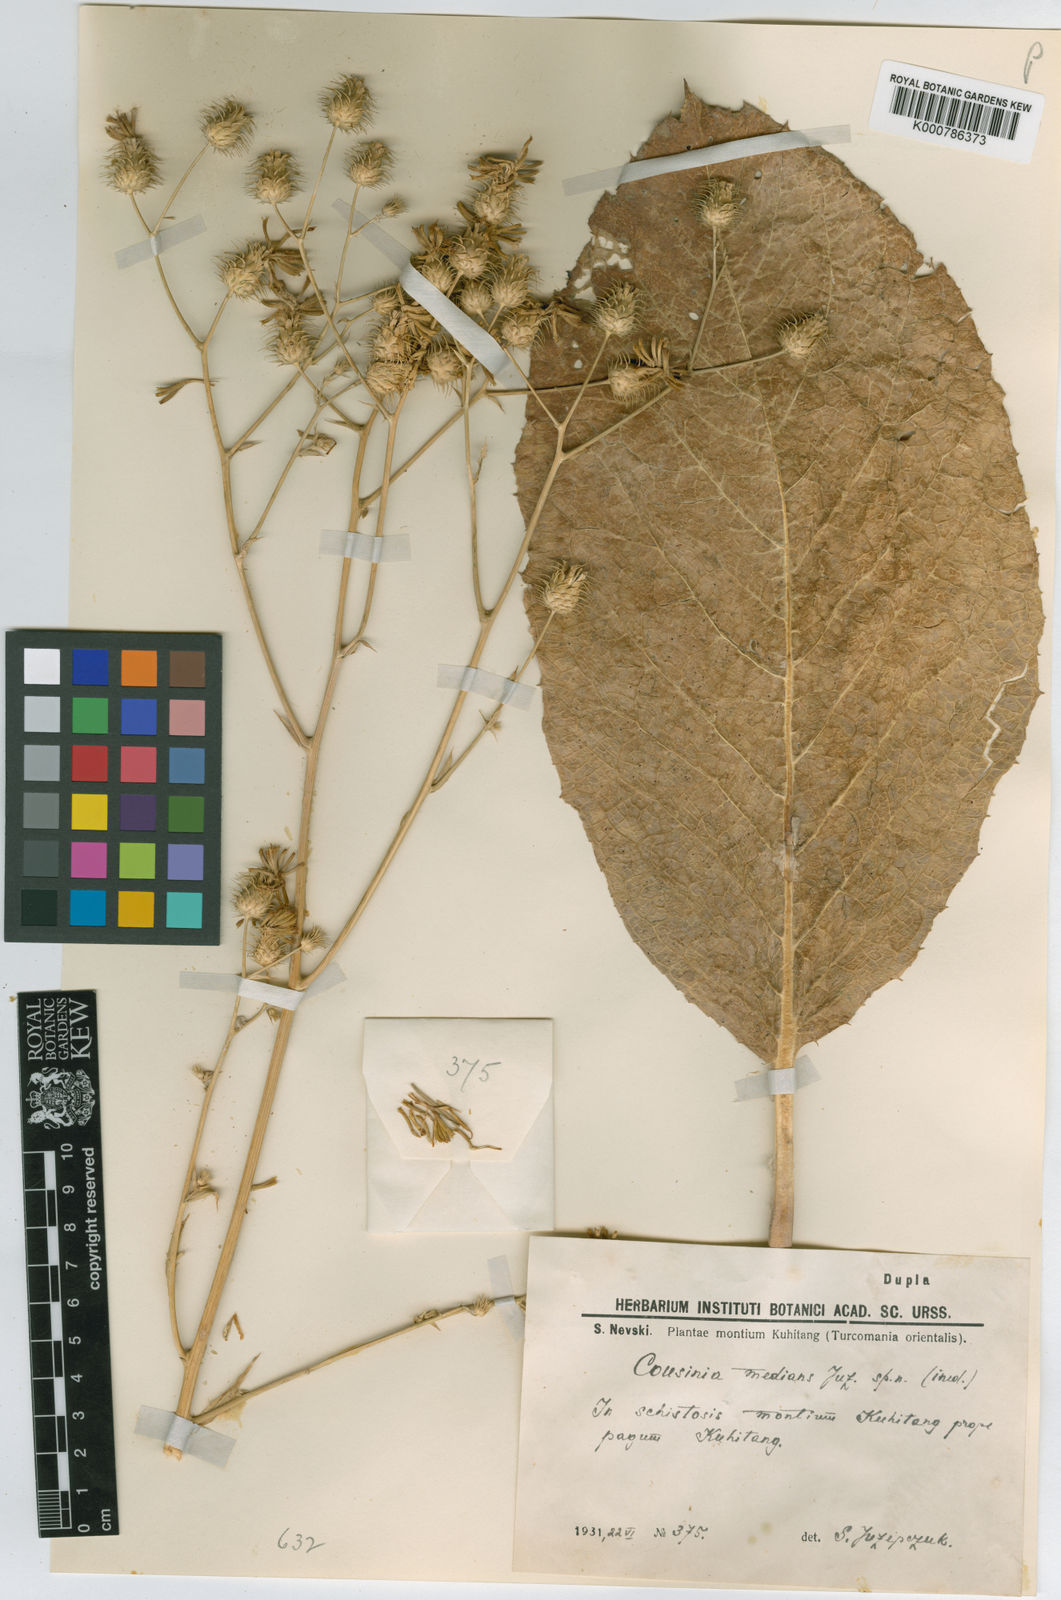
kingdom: Plantae
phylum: Tracheophyta
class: Magnoliopsida
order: Asterales
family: Asteraceae
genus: Arctium
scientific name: Arctium medians
